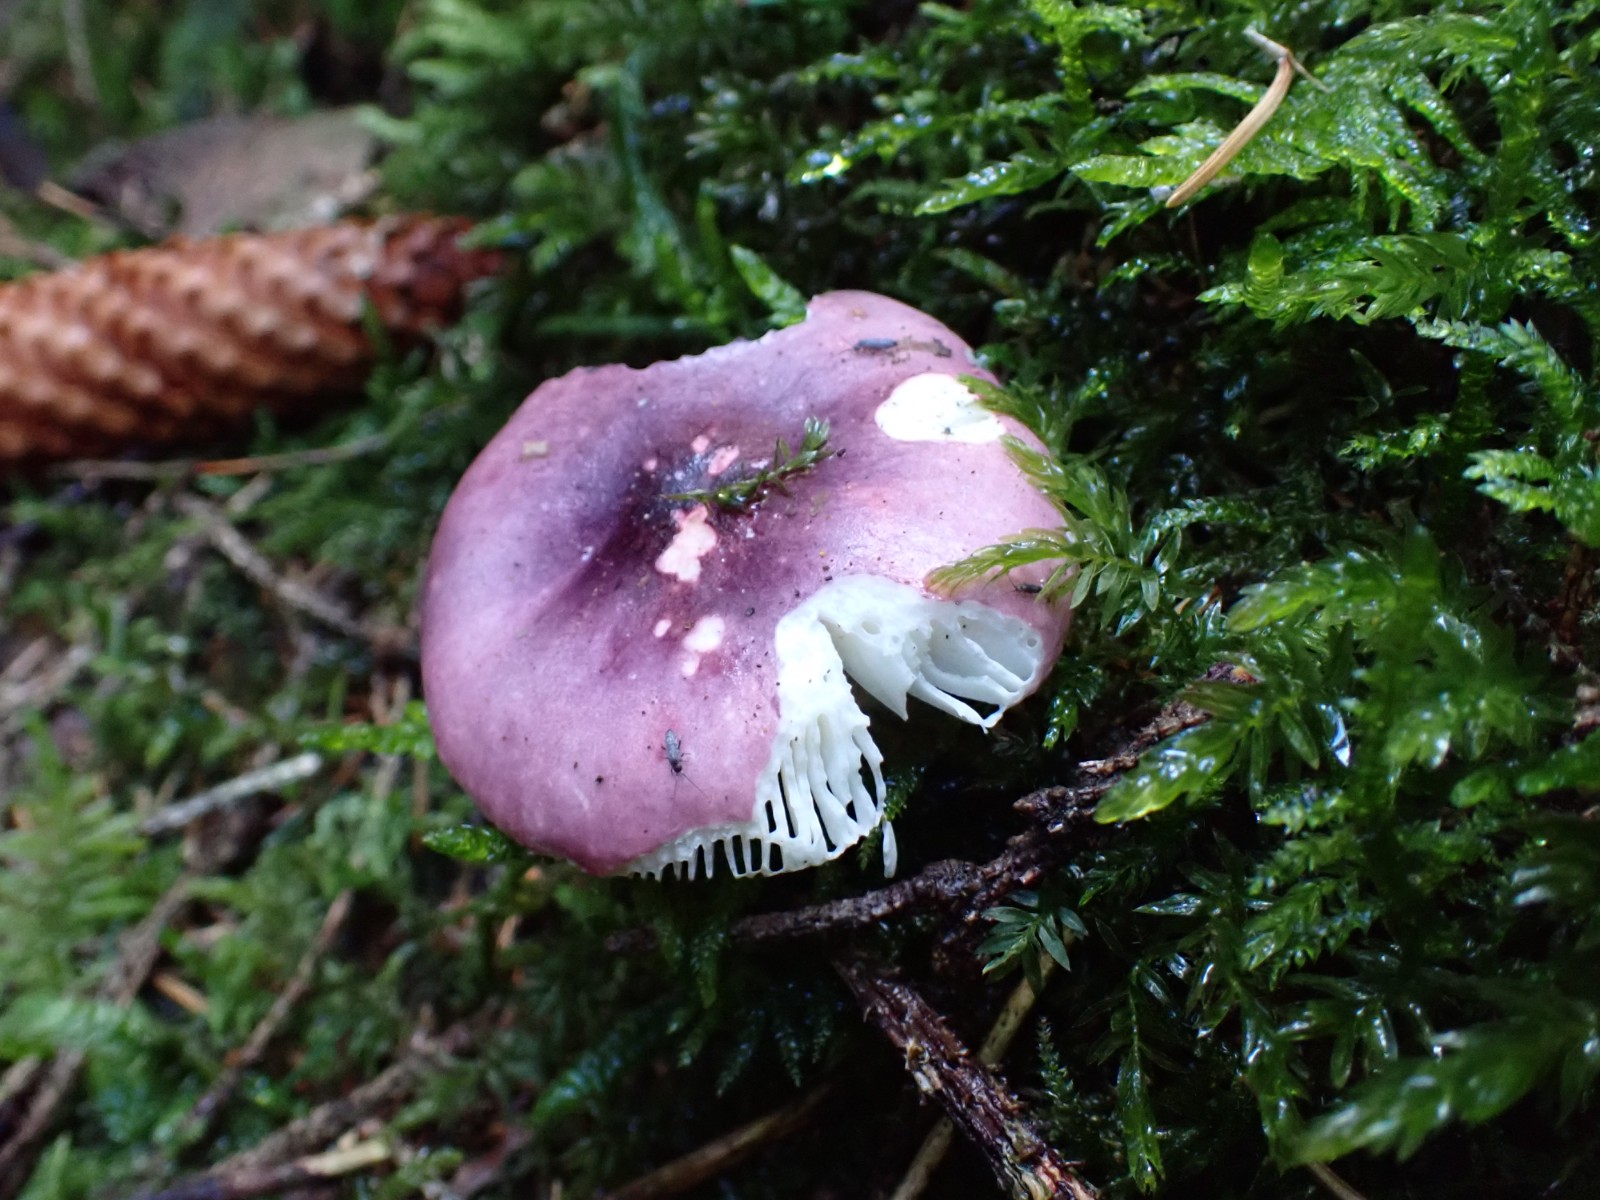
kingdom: Fungi
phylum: Basidiomycota
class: Agaricomycetes
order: Russulales
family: Russulaceae
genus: Russula
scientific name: Russula atrorubens
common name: sortrød skørhat
